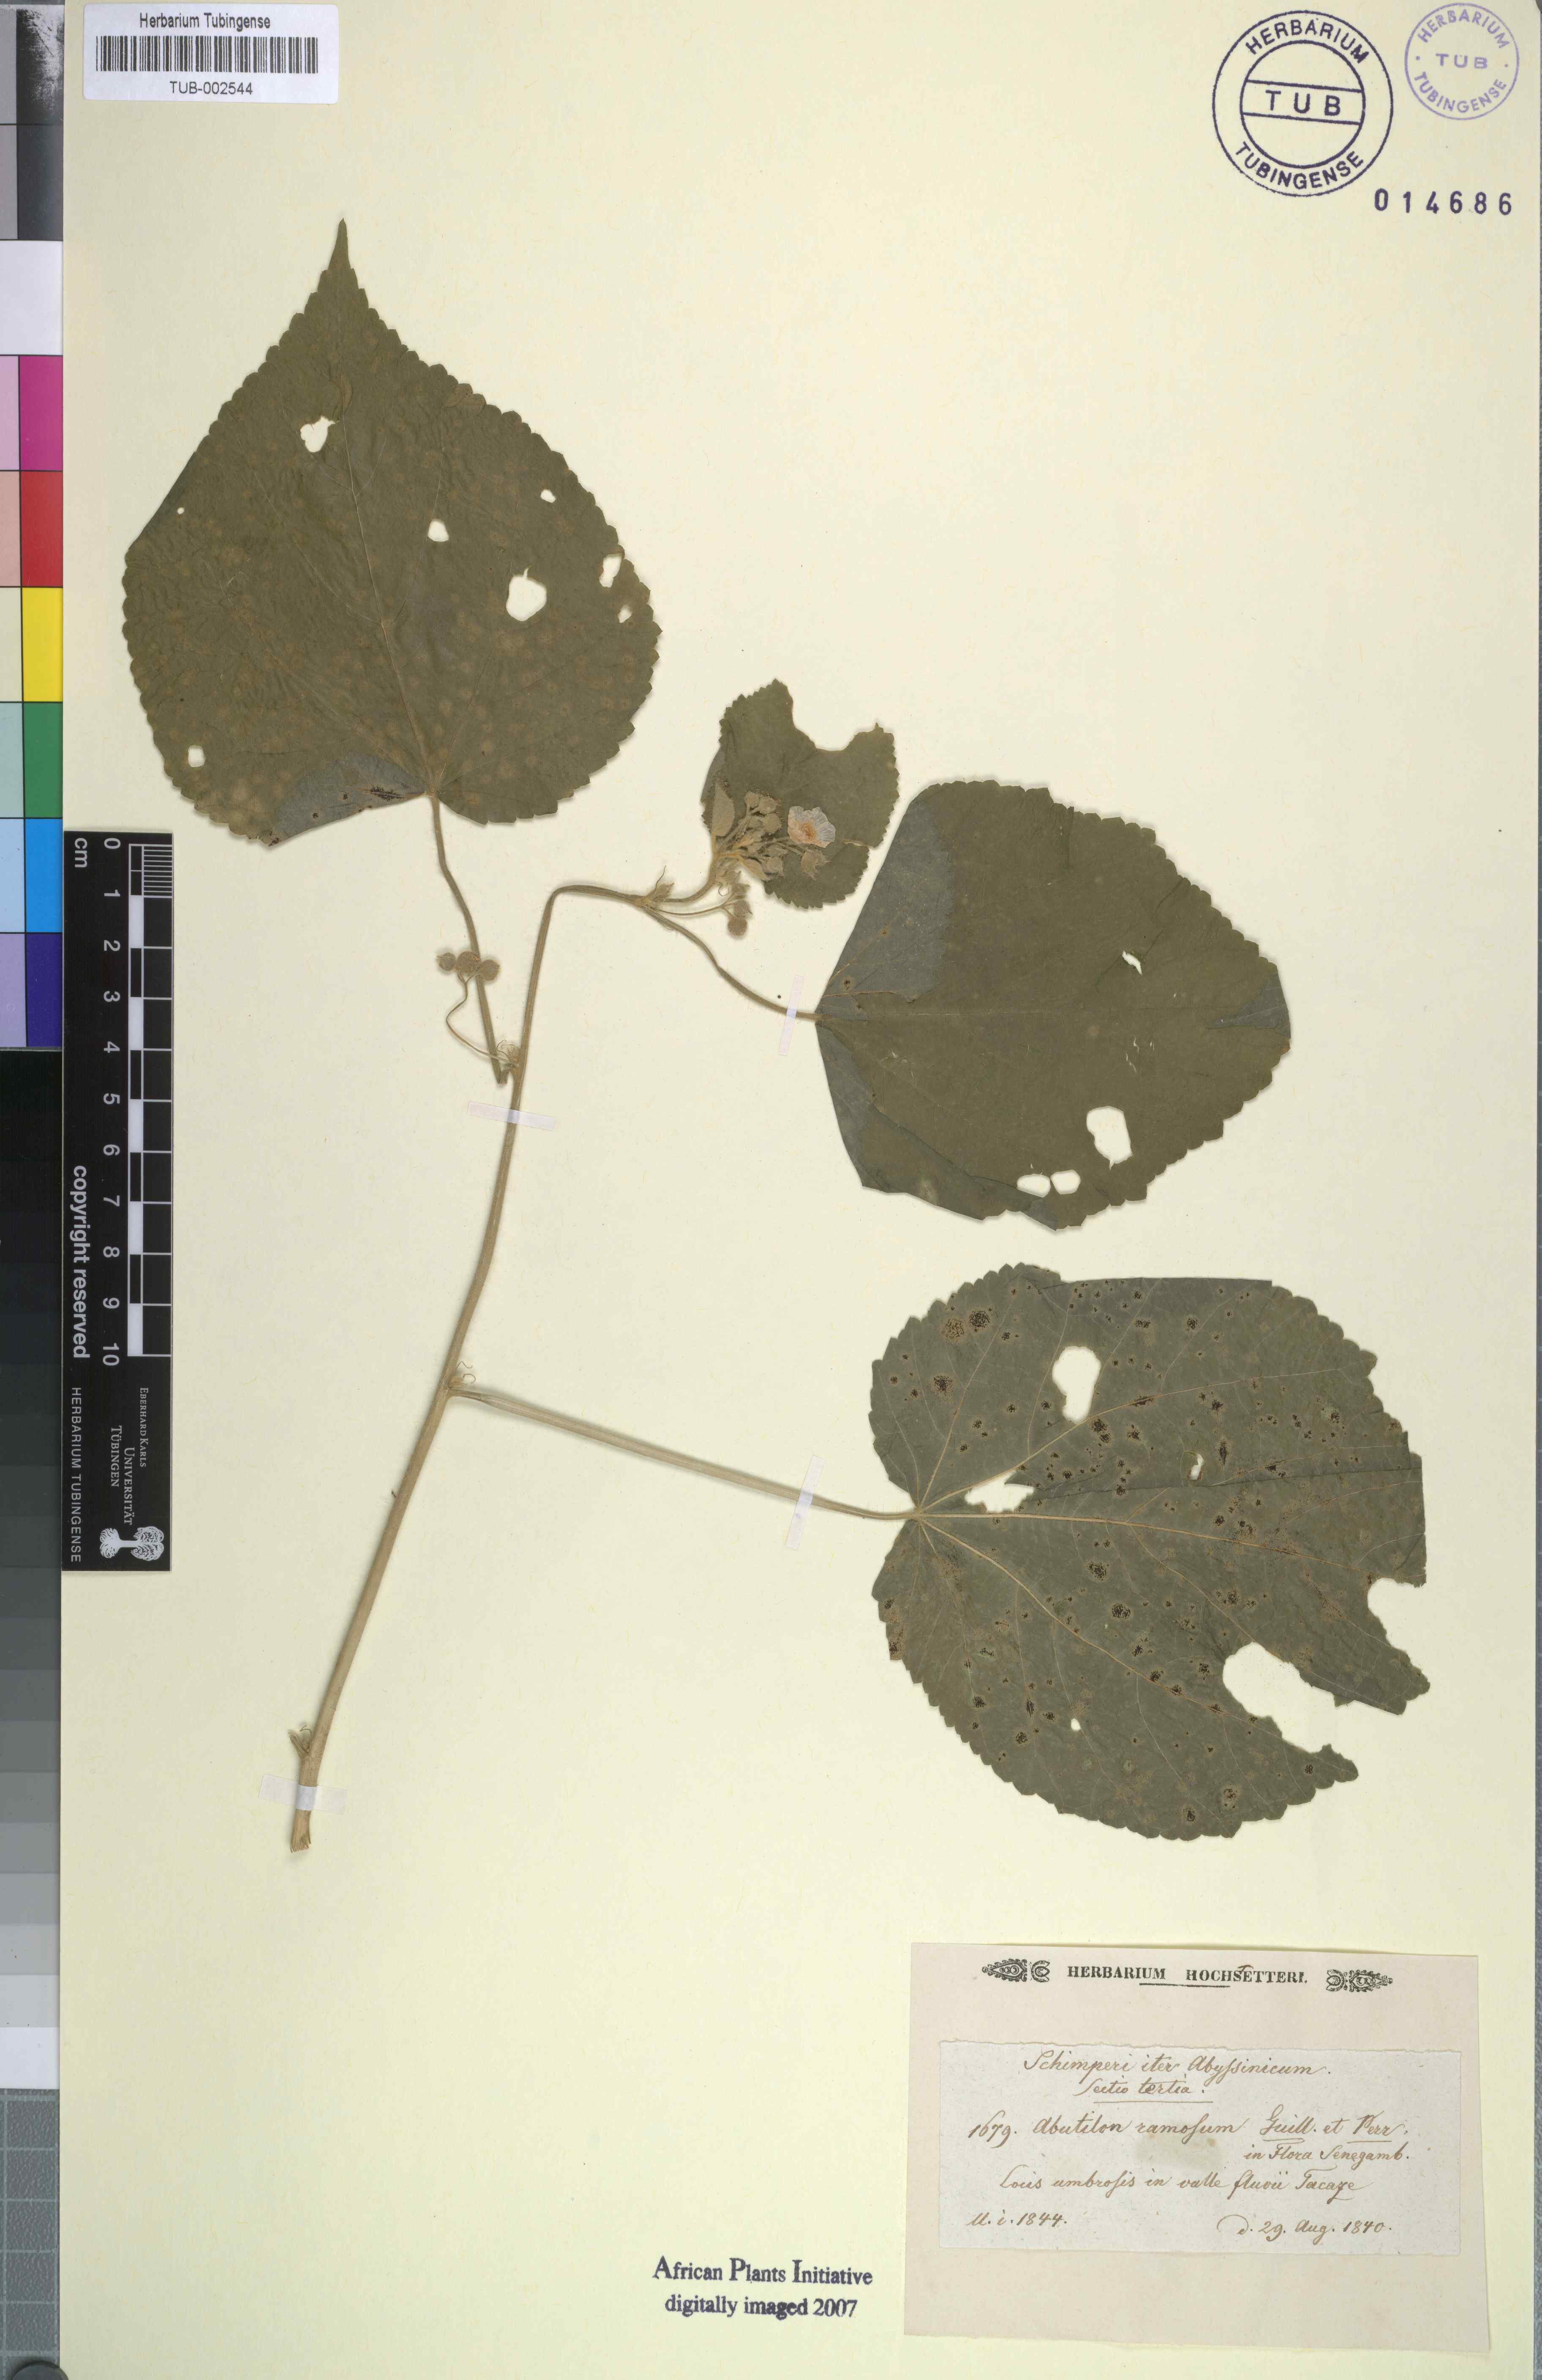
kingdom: Plantae
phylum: Tracheophyta
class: Magnoliopsida
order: Malvales
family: Malvaceae
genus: Abutilon
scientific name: Abutilon ramosum
